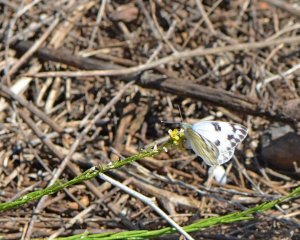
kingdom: Animalia
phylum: Arthropoda
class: Insecta
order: Lepidoptera
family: Pieridae
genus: Pontia
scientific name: Pontia occidentalis
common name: Western White
